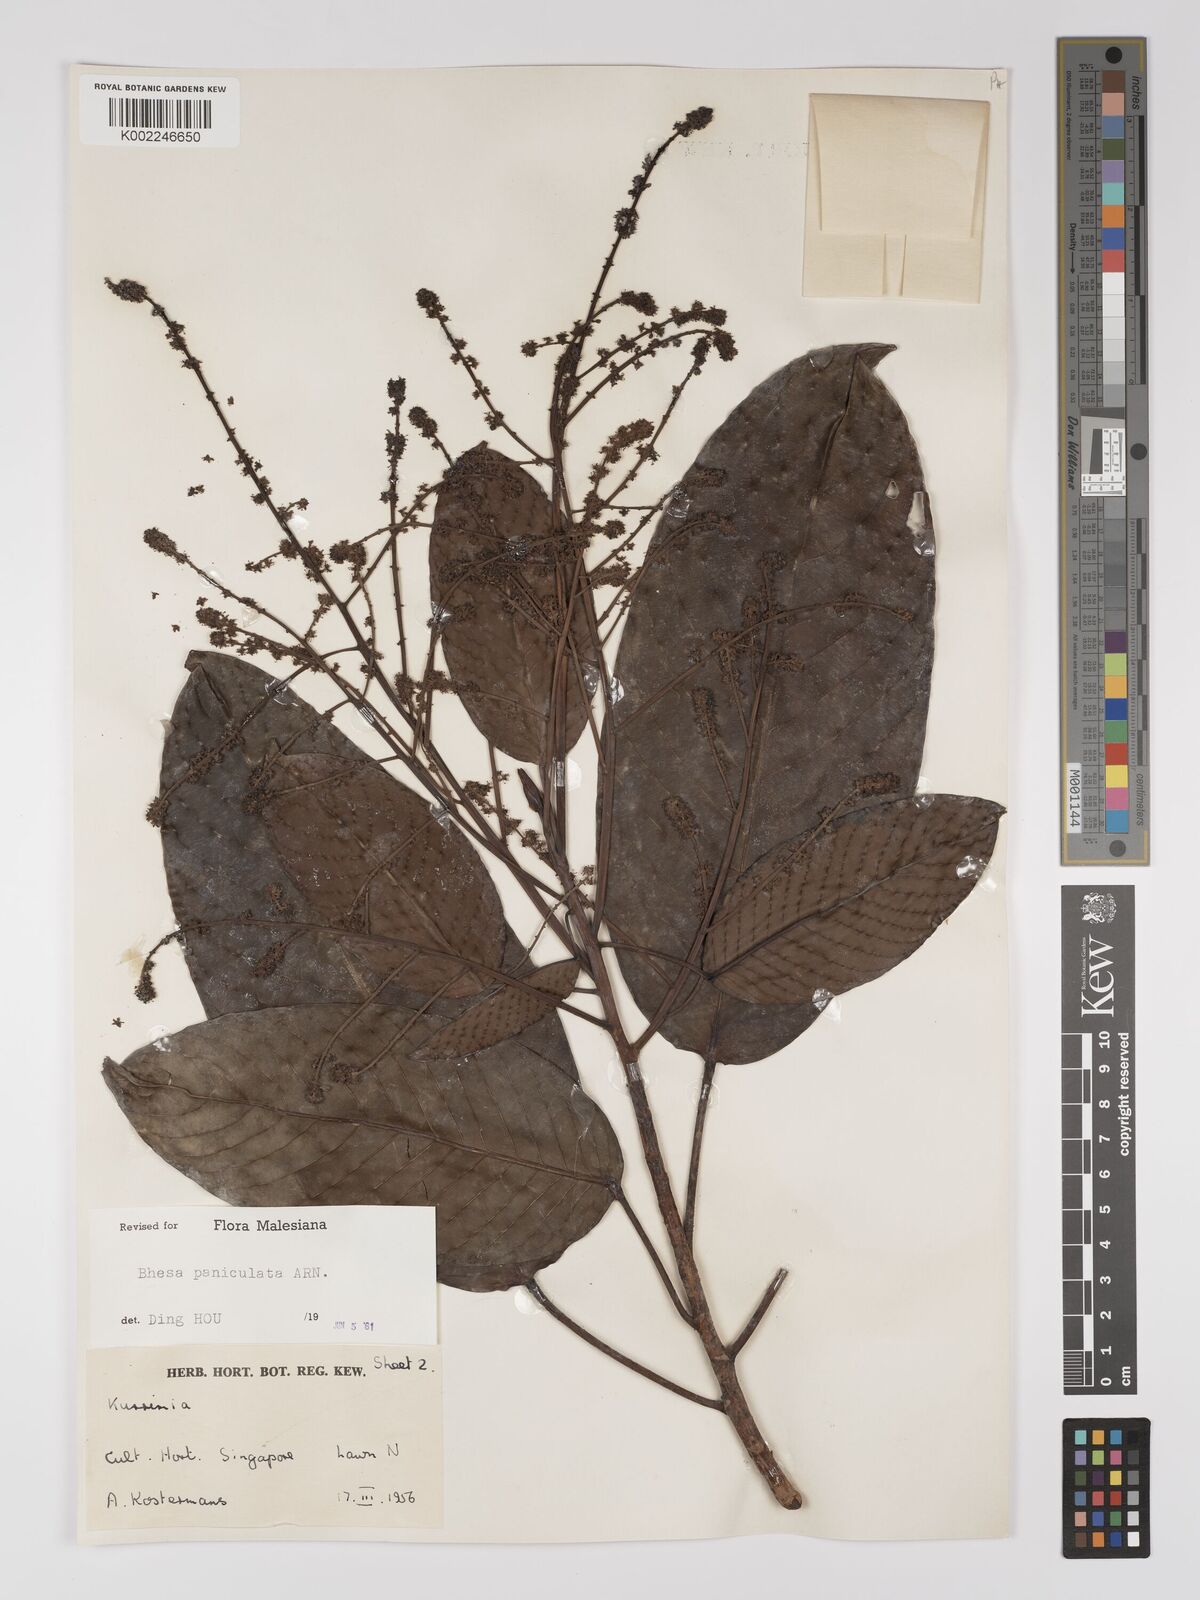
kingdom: Plantae
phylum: Tracheophyta
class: Magnoliopsida
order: Malpighiales
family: Centroplacaceae
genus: Bhesa
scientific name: Bhesa paniculata
